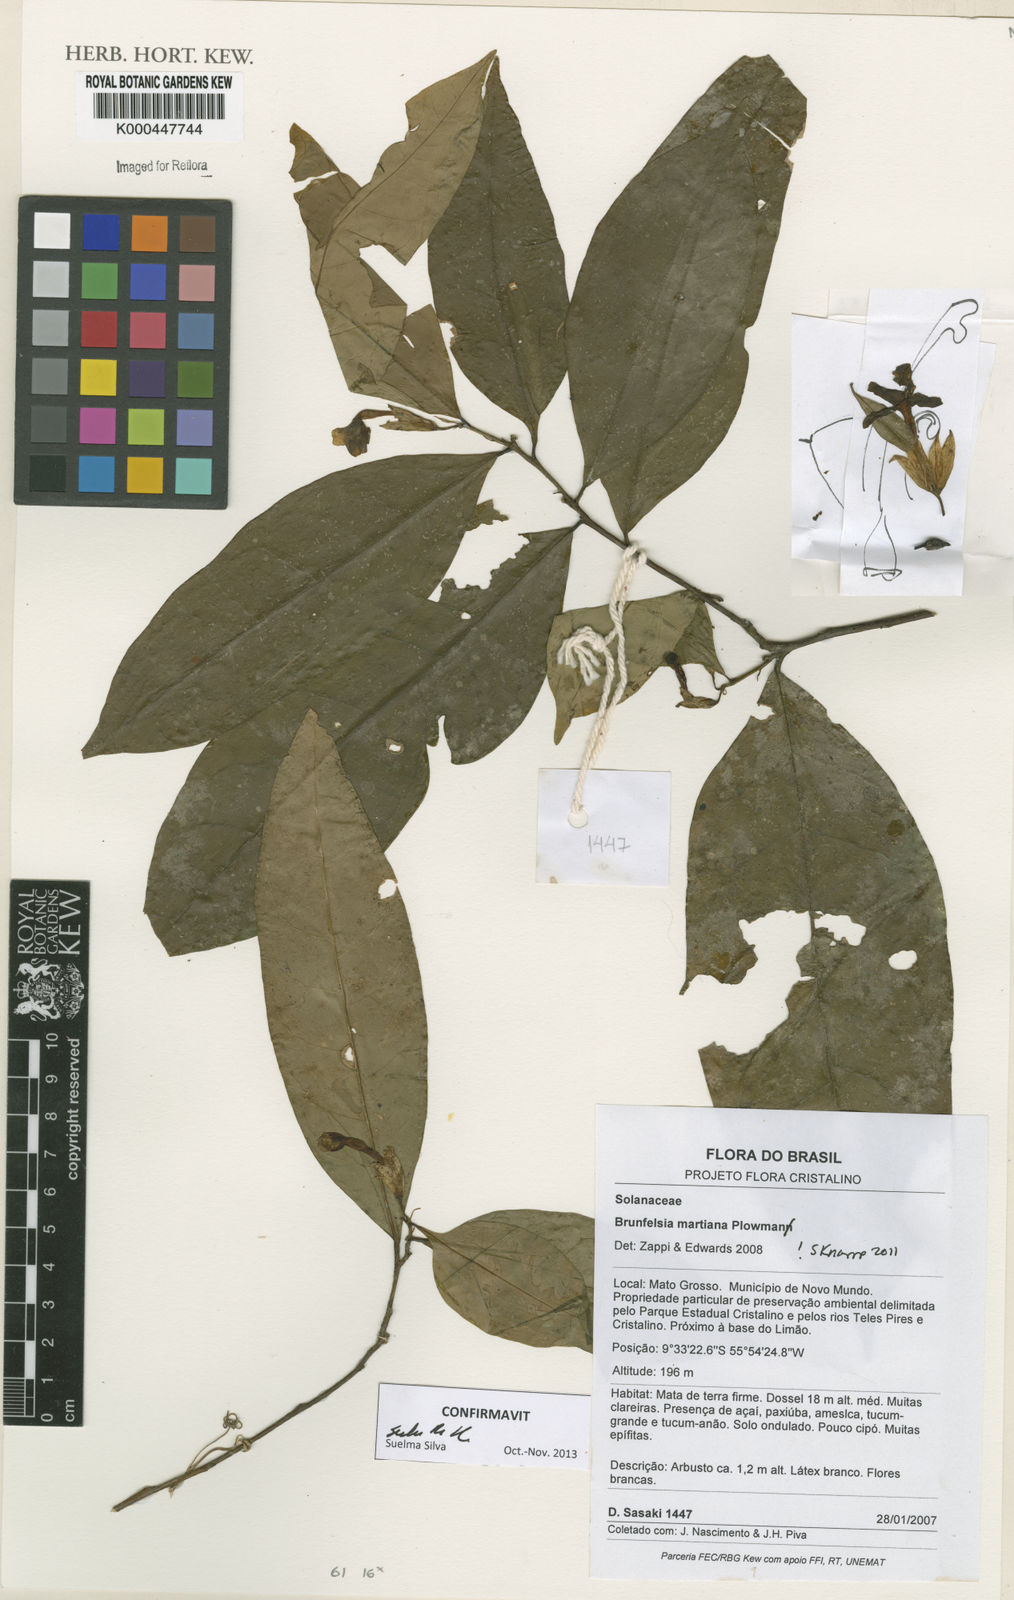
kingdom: Plantae
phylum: Tracheophyta
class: Magnoliopsida
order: Solanales
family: Solanaceae
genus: Brunfelsia
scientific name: Brunfelsia martiana
